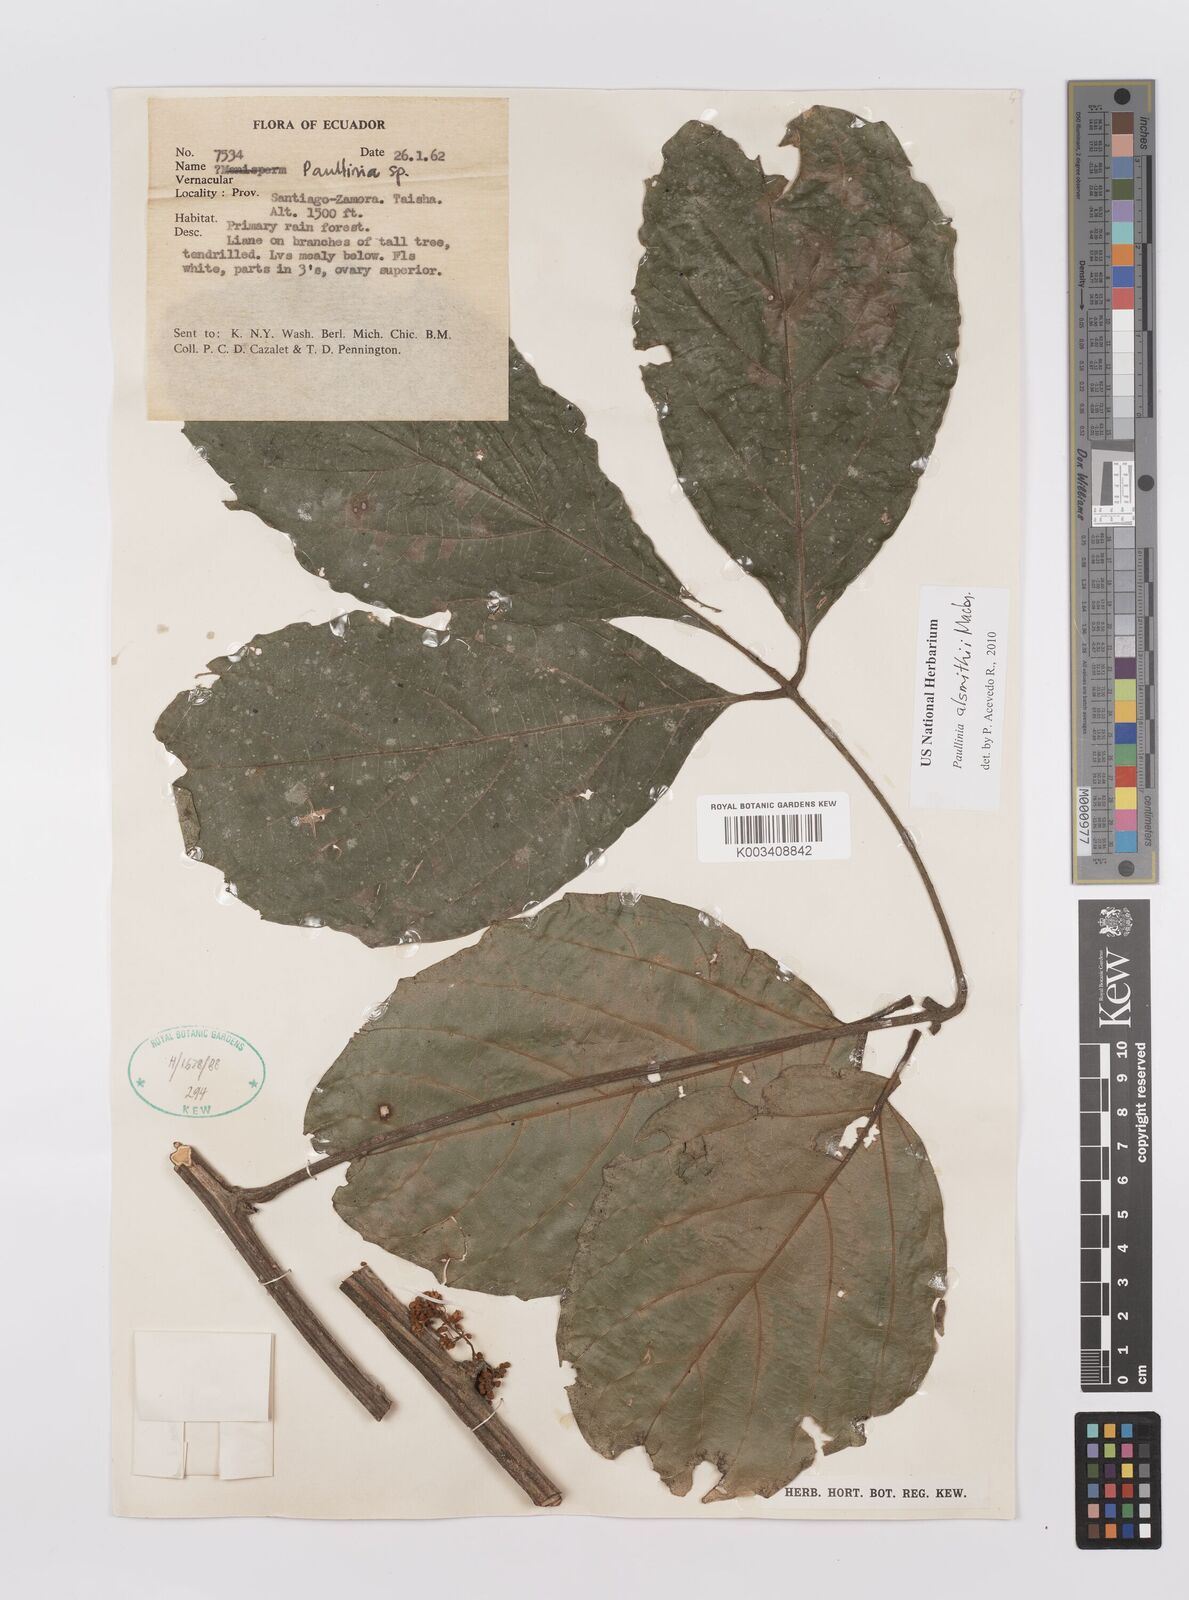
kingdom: Plantae
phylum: Tracheophyta
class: Magnoliopsida
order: Sapindales
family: Sapindaceae
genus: Paullinia
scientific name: Paullinia alsmithii
